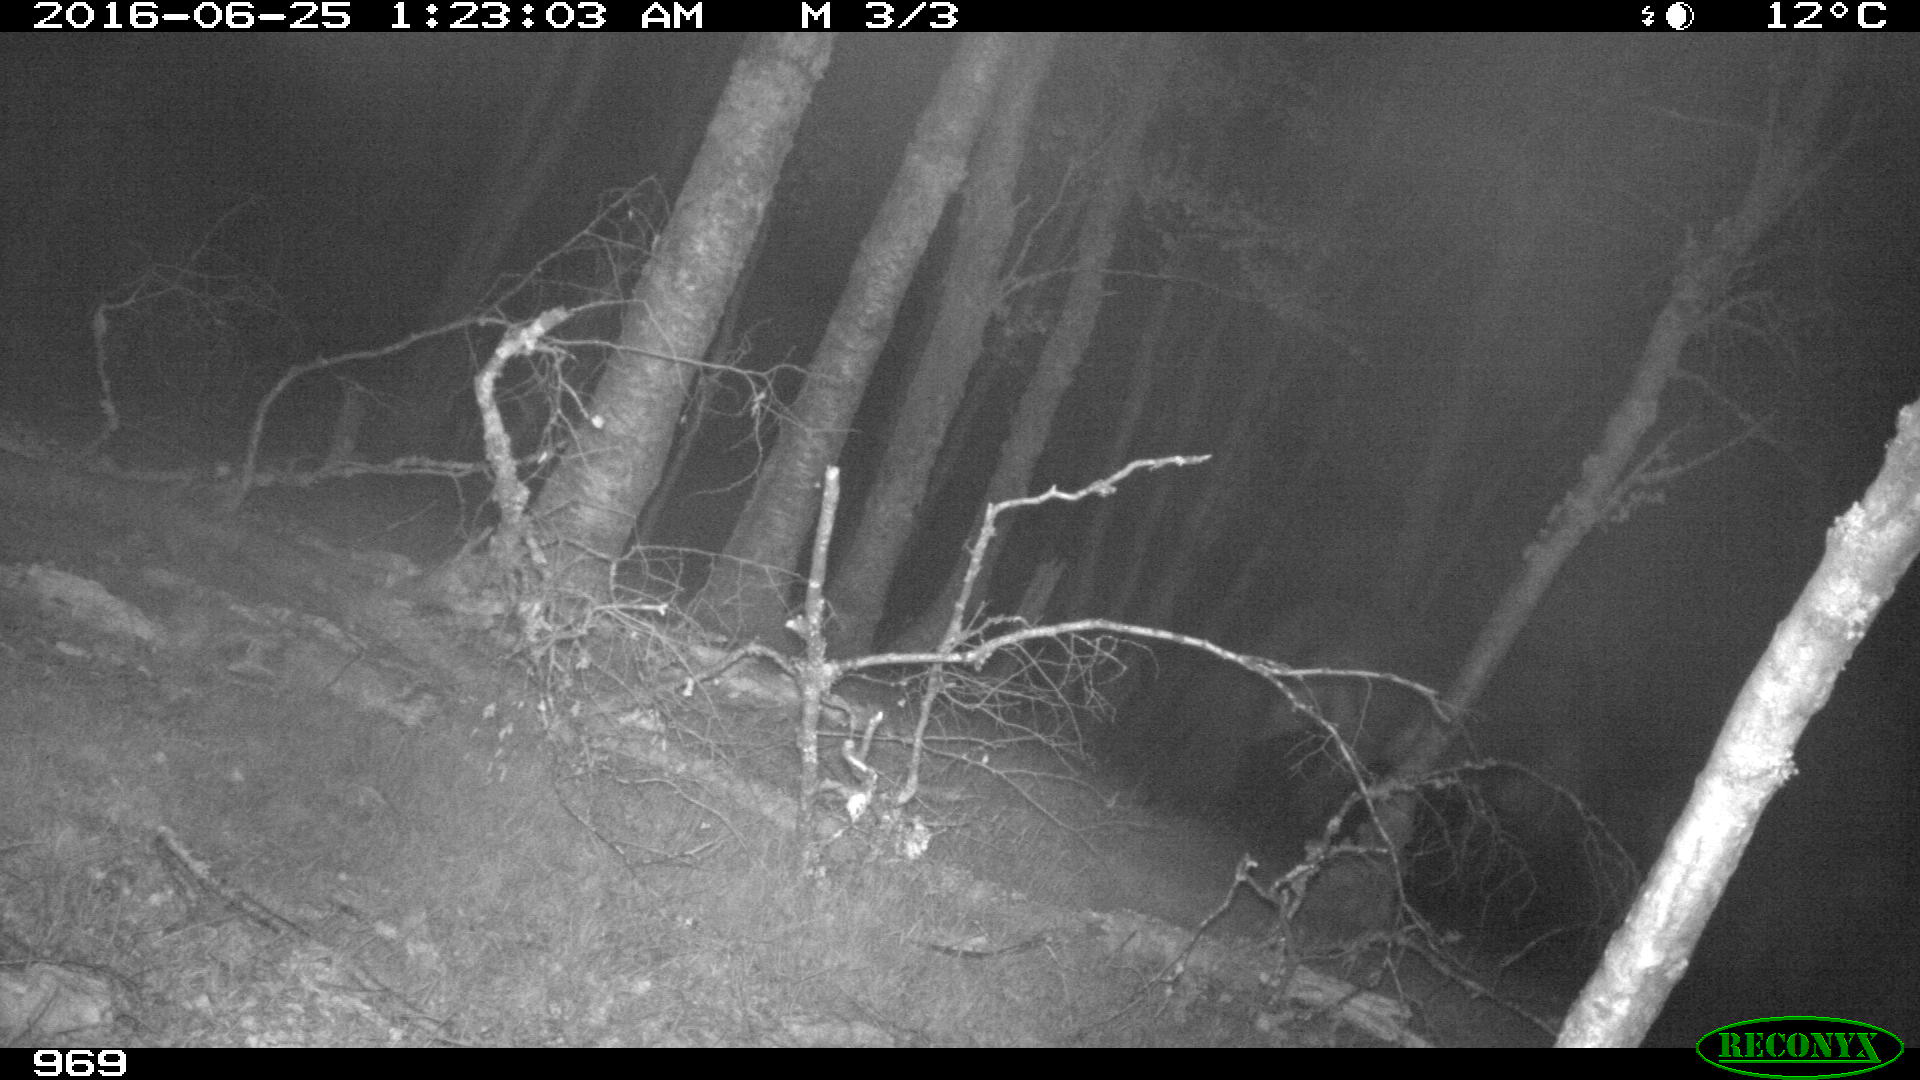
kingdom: Animalia
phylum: Chordata
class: Mammalia
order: Perissodactyla
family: Equidae
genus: Equus
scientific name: Equus caballus
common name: Horse
